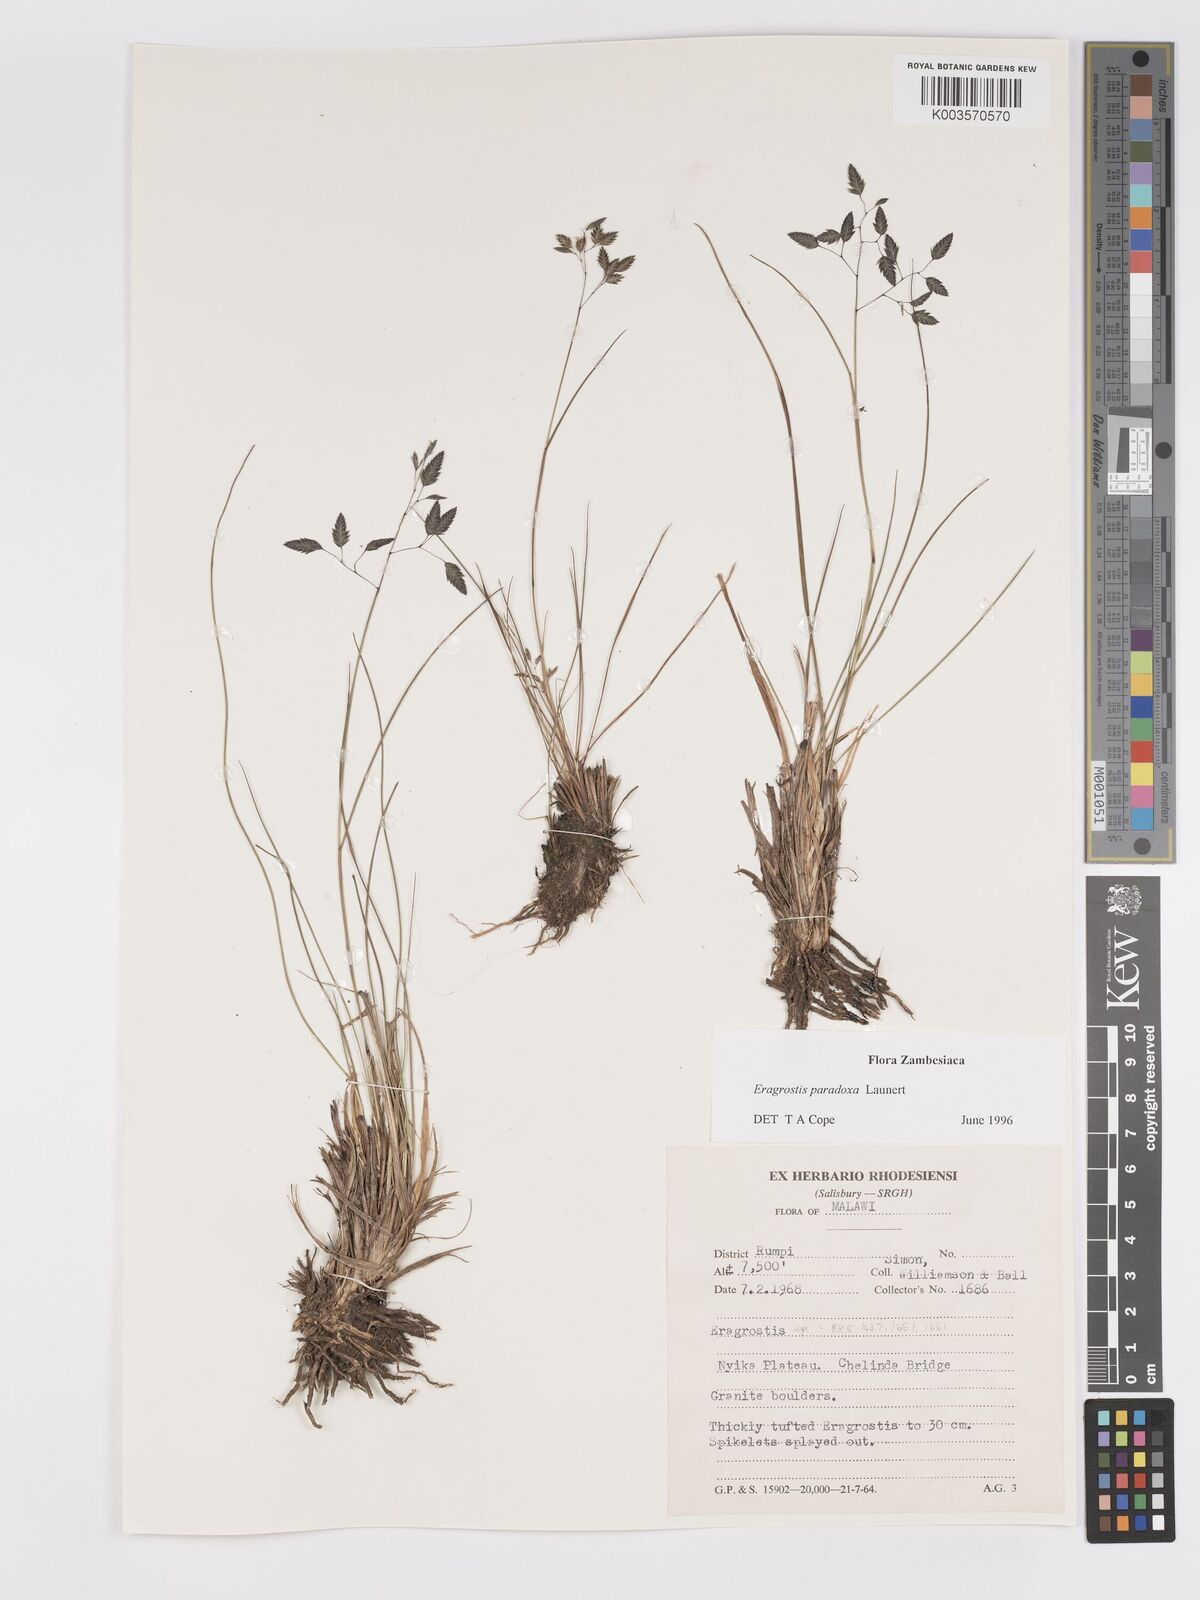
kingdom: Plantae
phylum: Tracheophyta
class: Liliopsida
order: Poales
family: Poaceae
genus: Eragrostis
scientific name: Eragrostis paradoxa
